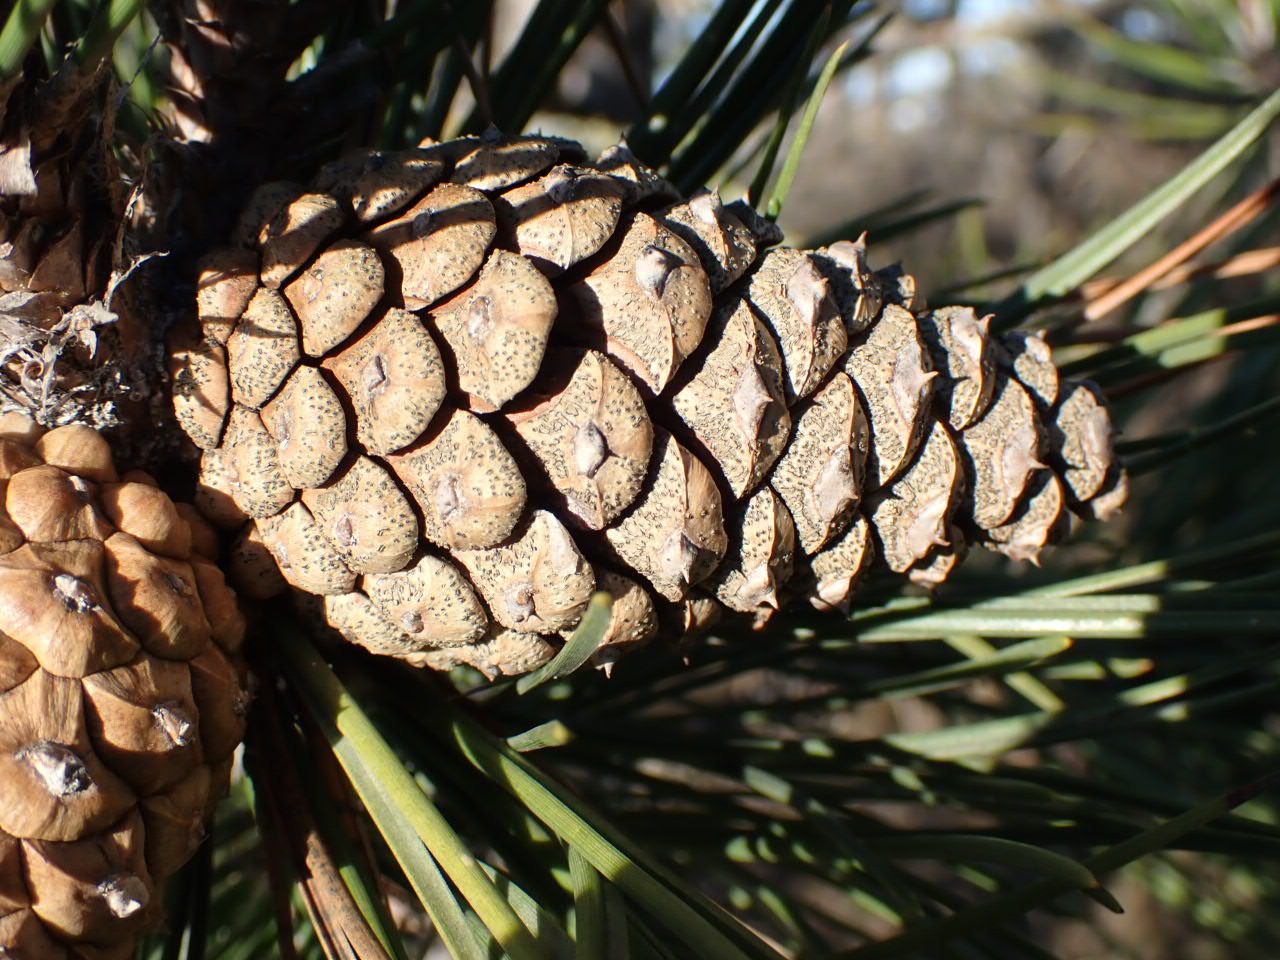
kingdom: Plantae
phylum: Tracheophyta
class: Pinopsida
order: Pinales
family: Pinaceae
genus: Pinus
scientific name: Pinus mugo
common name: Bjerg-fyr
